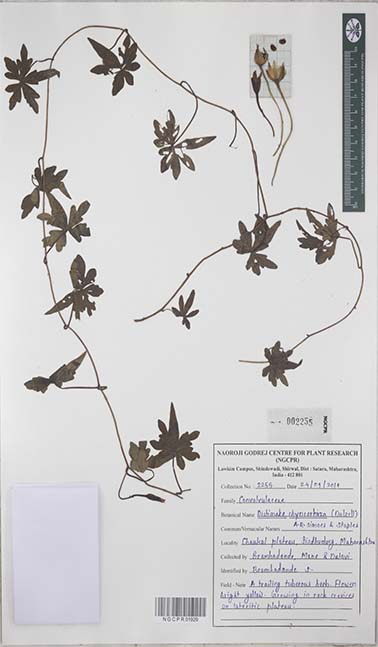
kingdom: Plantae
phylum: Tracheophyta
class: Magnoliopsida
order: Solanales
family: Convolvulaceae
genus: Distimake
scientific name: Distimake rhynchorrhizus
